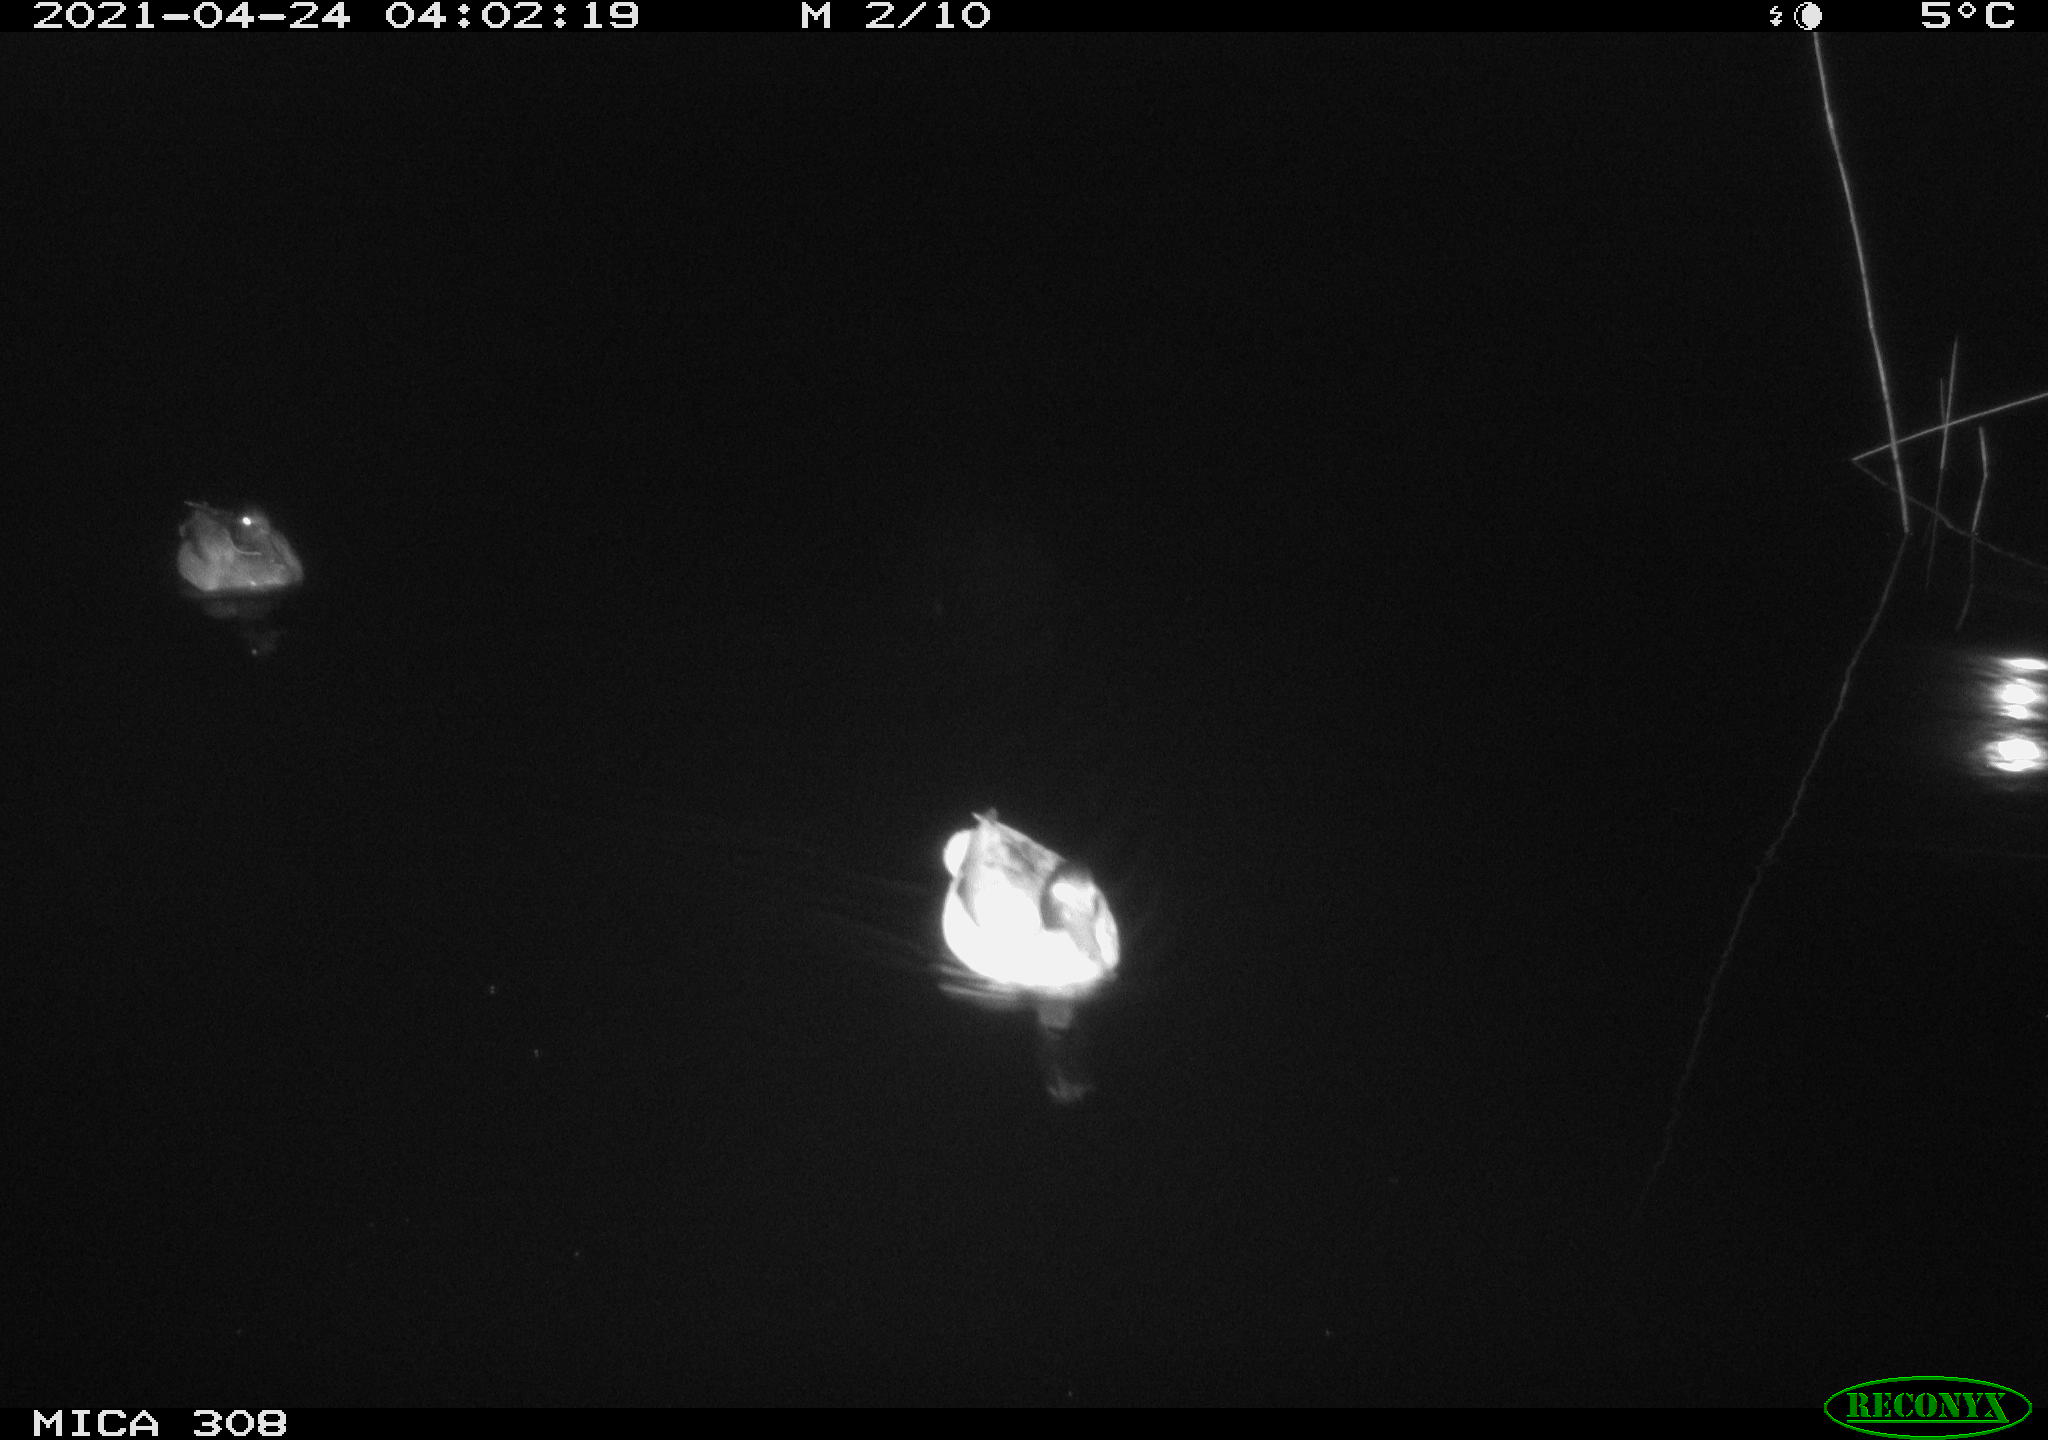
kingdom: Animalia
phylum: Chordata
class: Aves
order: Anseriformes
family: Anatidae
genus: Anas
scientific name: Anas platyrhynchos
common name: Mallard
